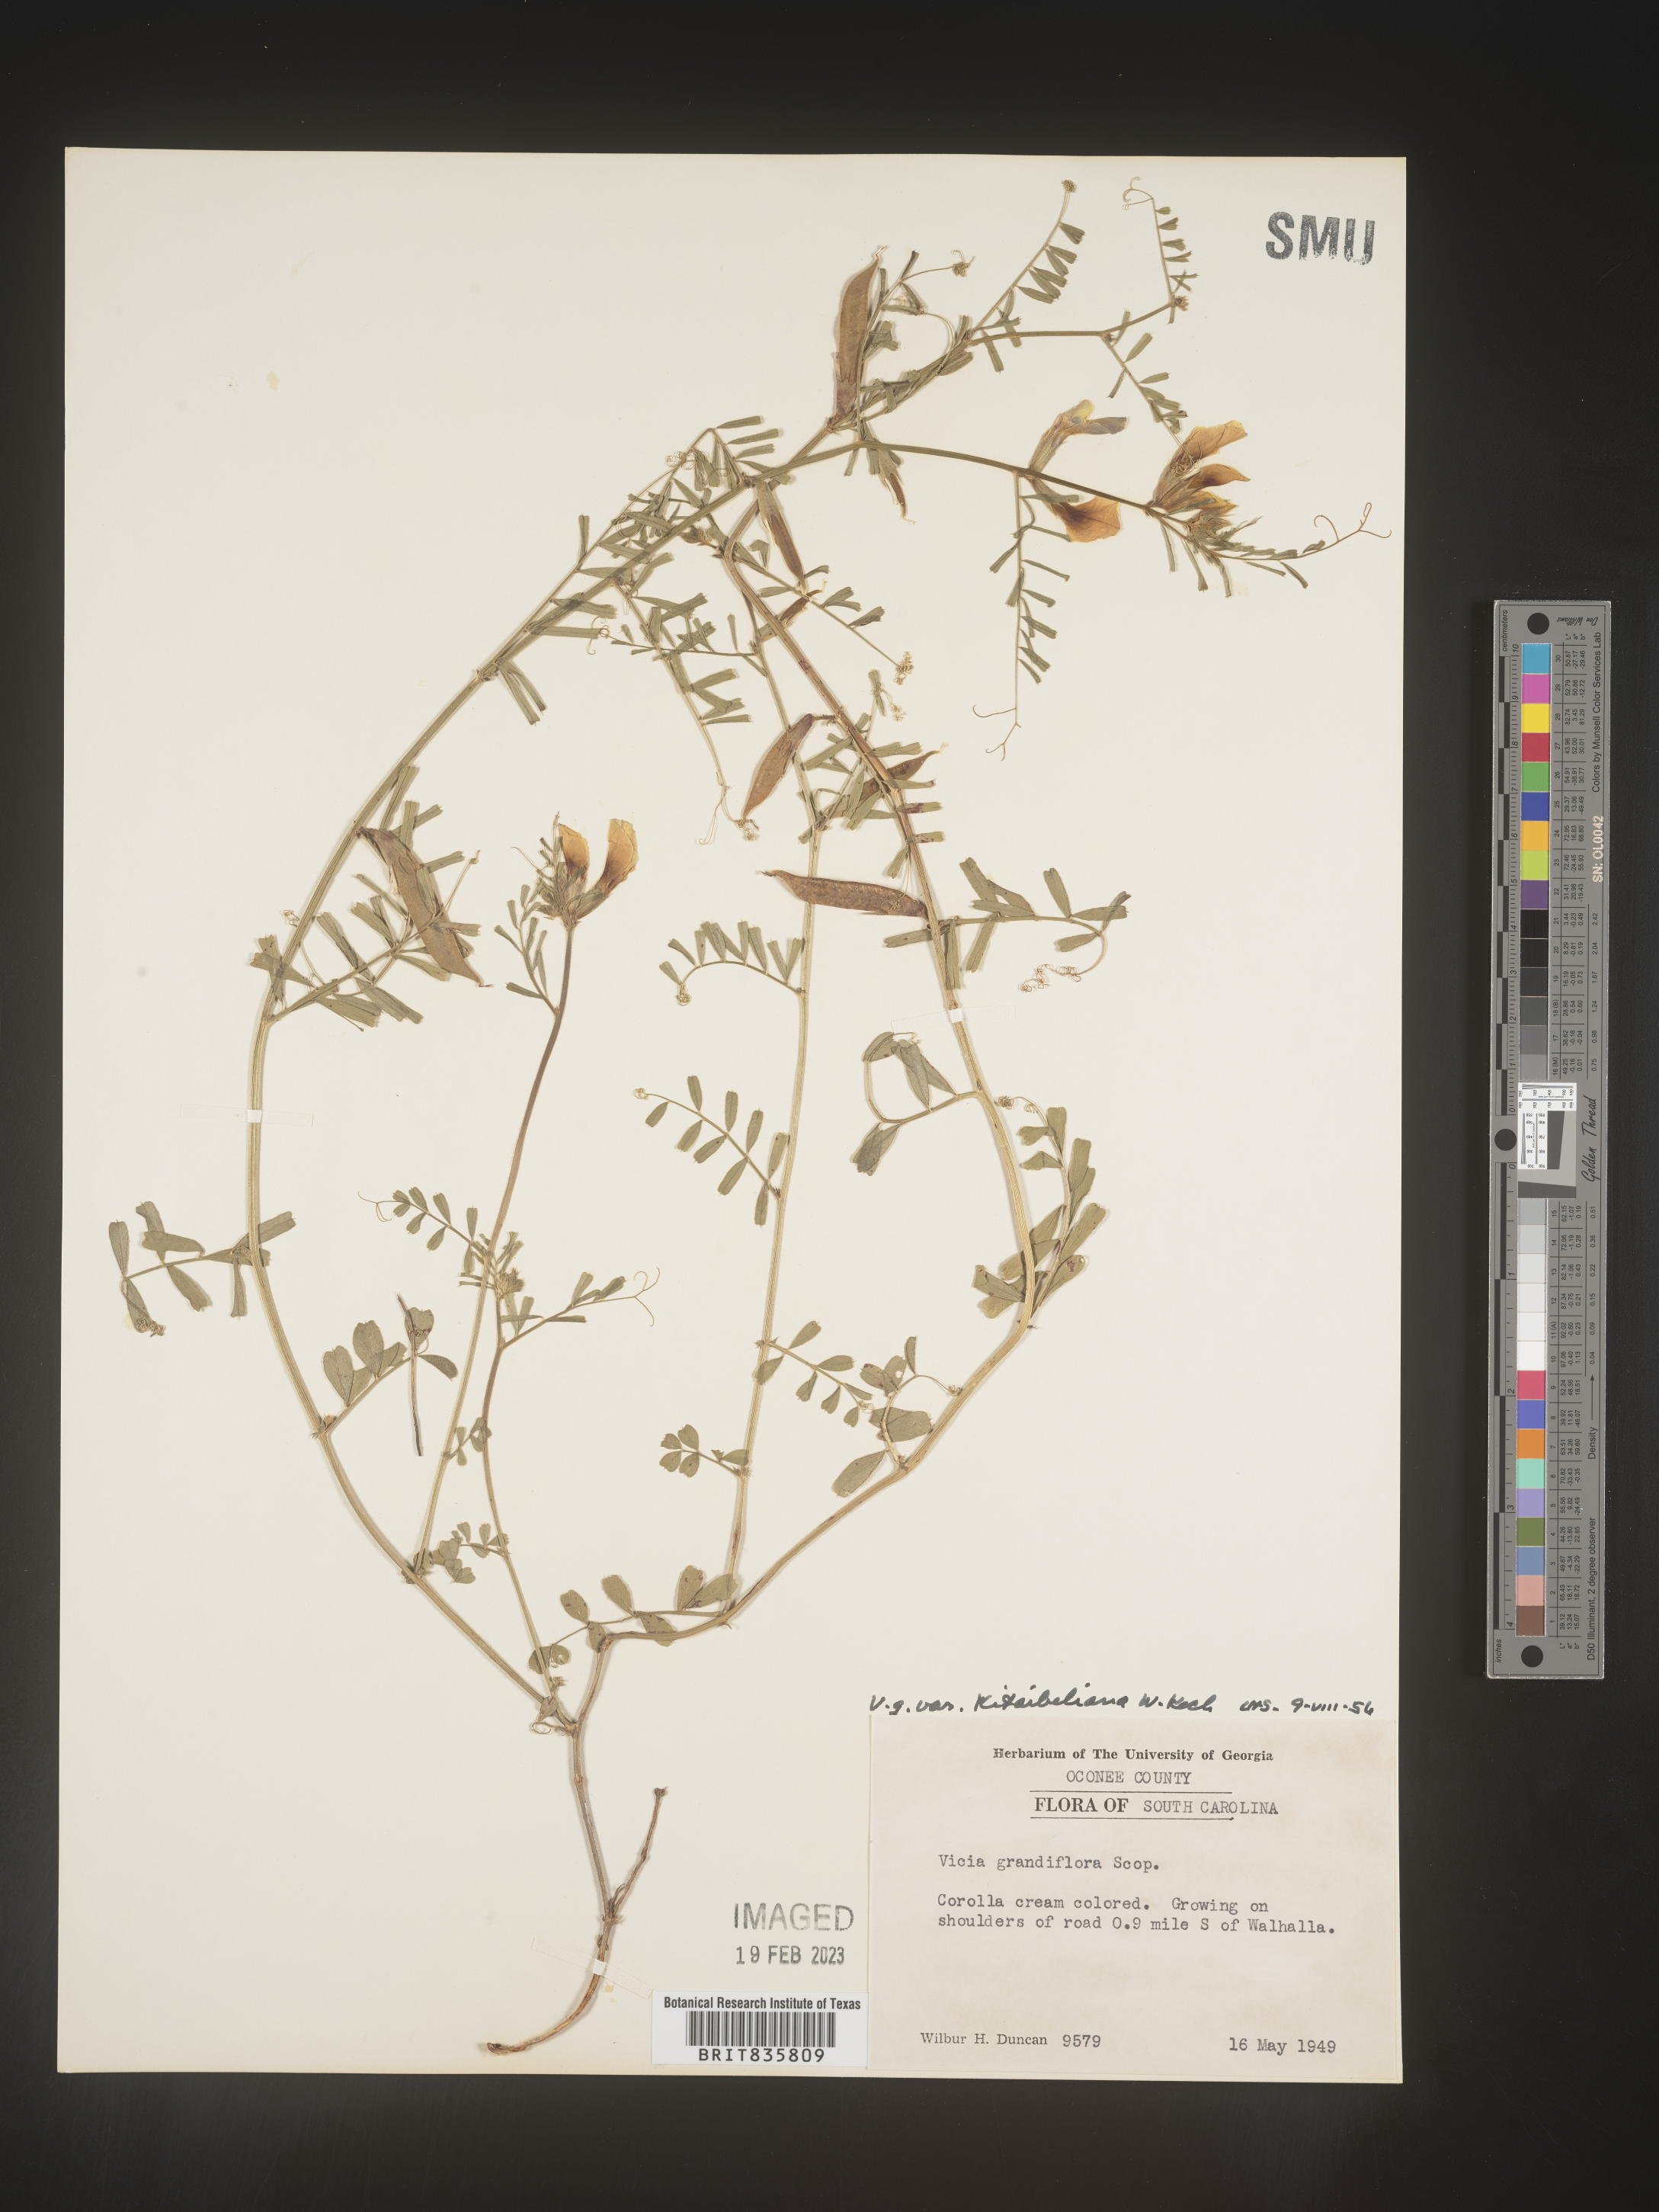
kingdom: Plantae
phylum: Tracheophyta
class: Magnoliopsida
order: Fabales
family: Fabaceae
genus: Vicia
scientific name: Vicia grandiflora
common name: Large yellow vetch
